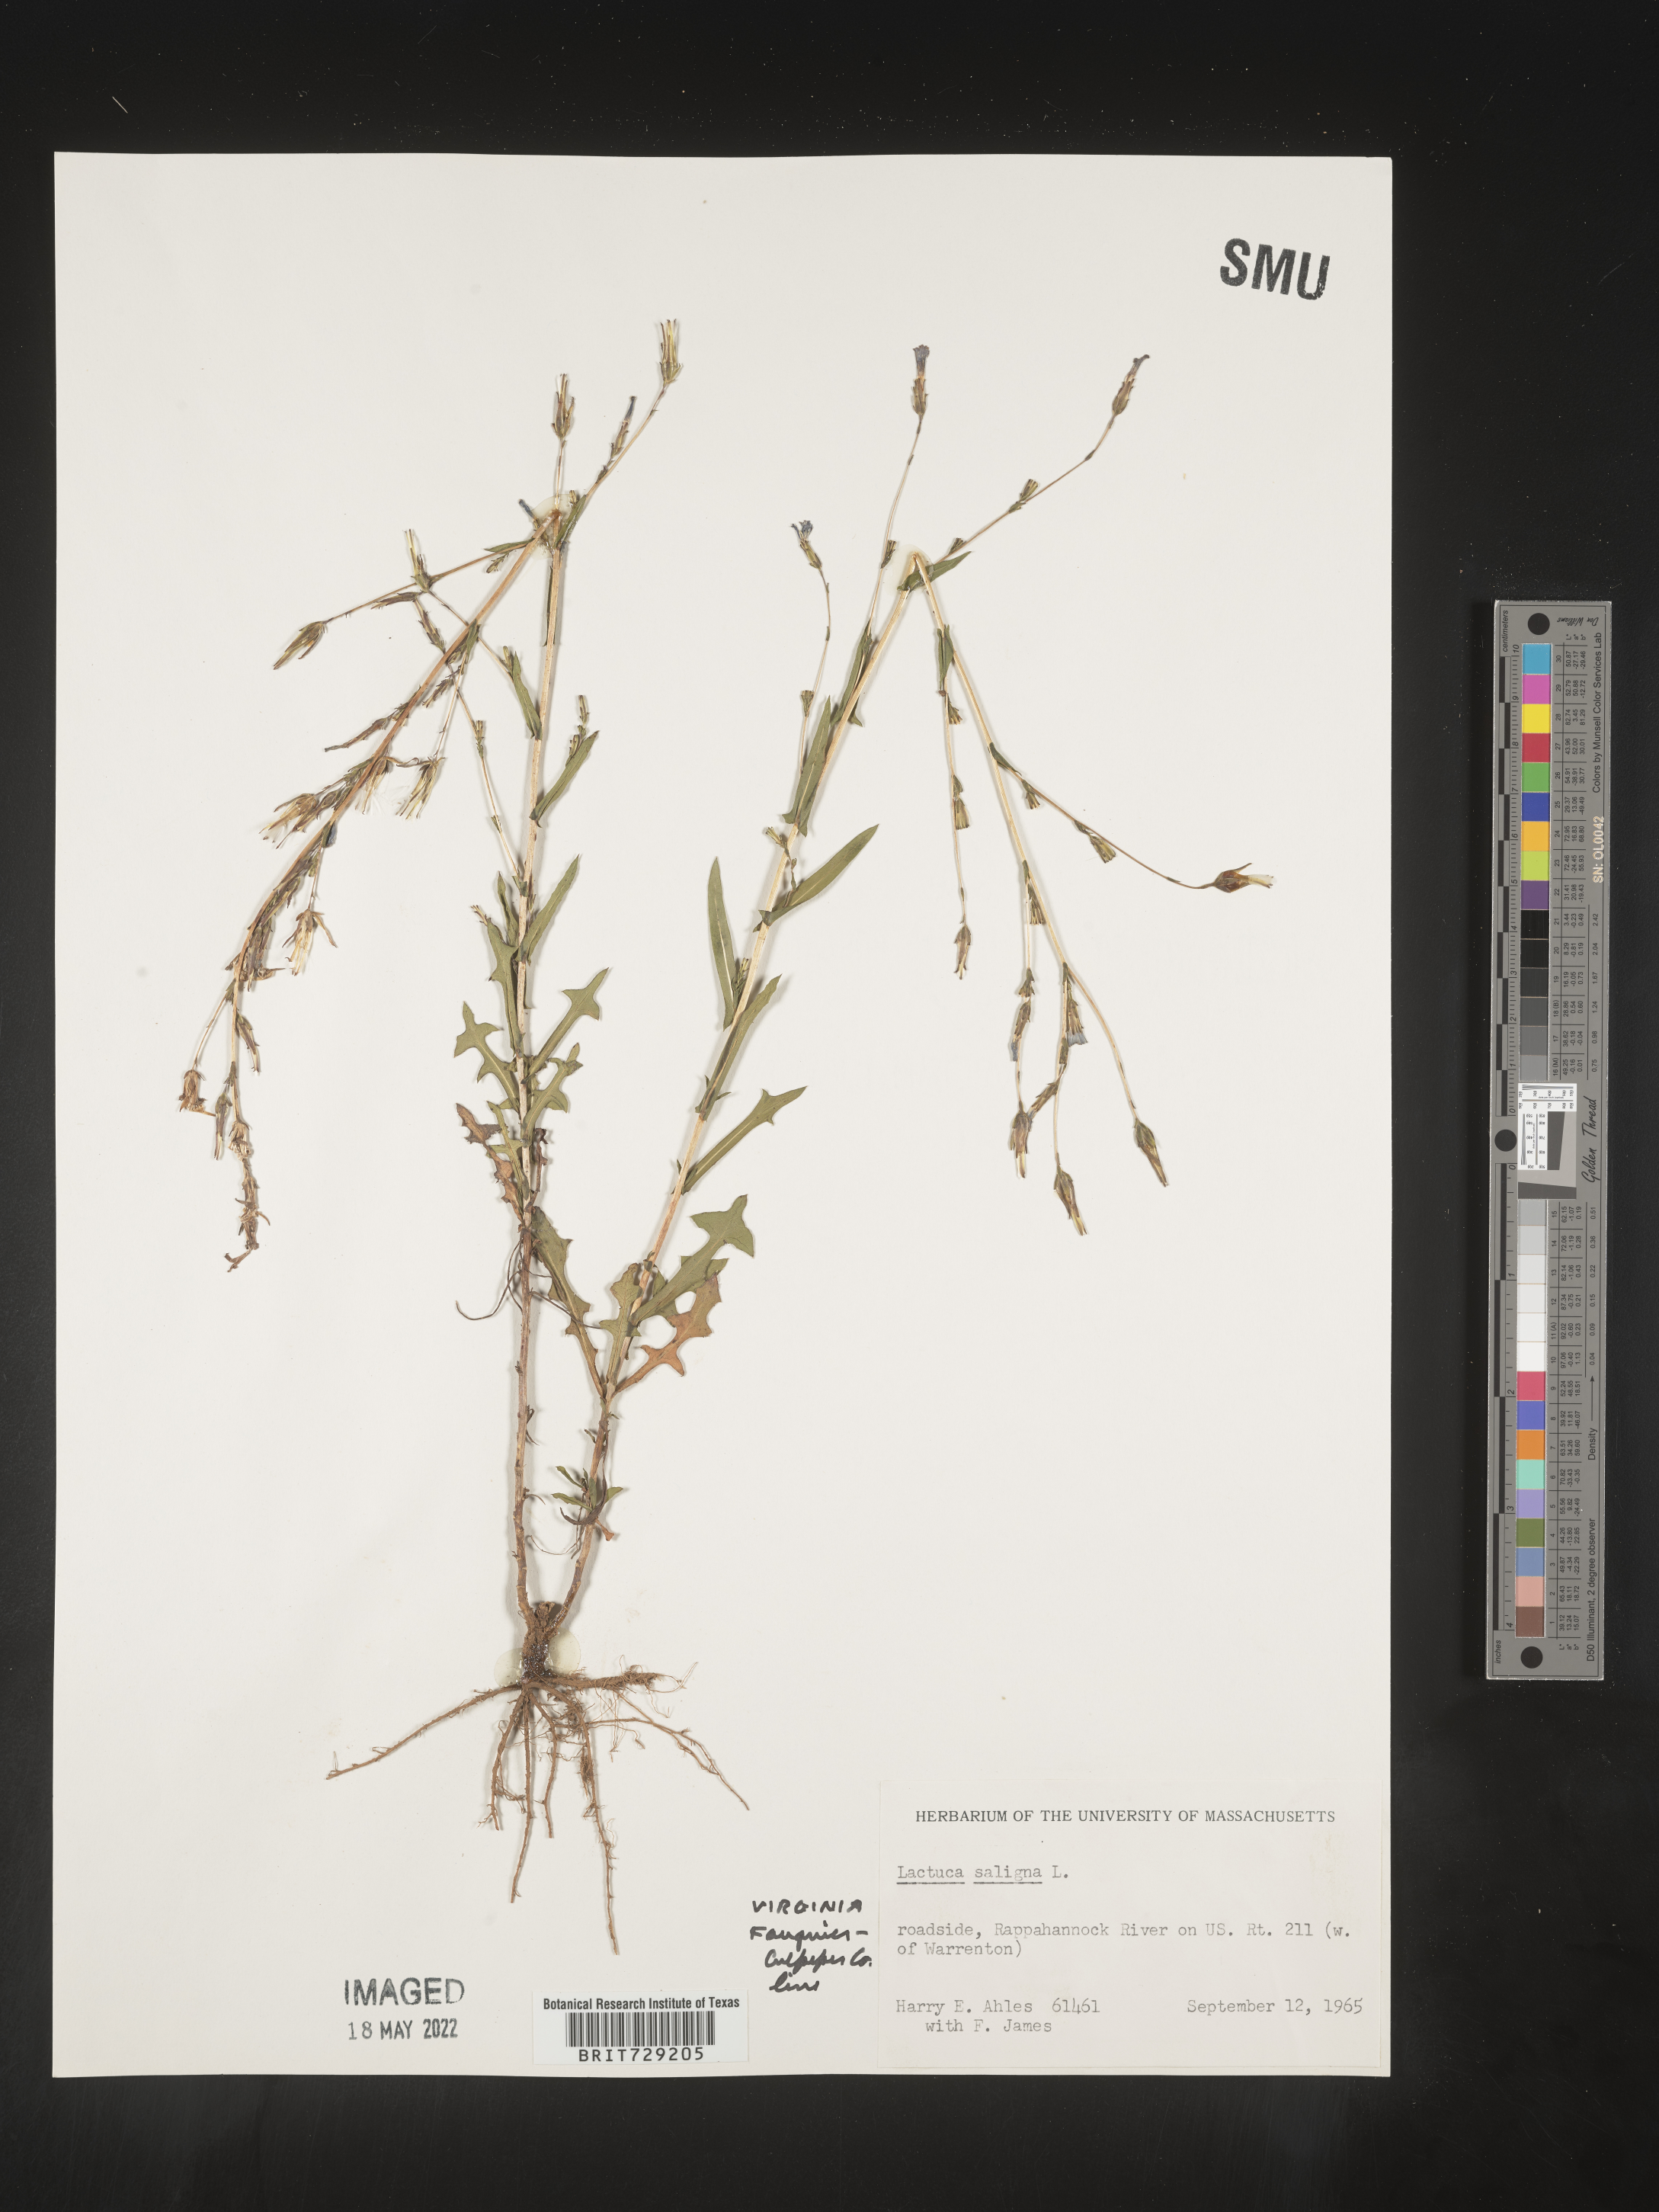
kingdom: Plantae
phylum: Tracheophyta
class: Magnoliopsida
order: Asterales
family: Asteraceae
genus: Lactuca
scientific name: Lactuca saligna
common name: Wild lettuce
